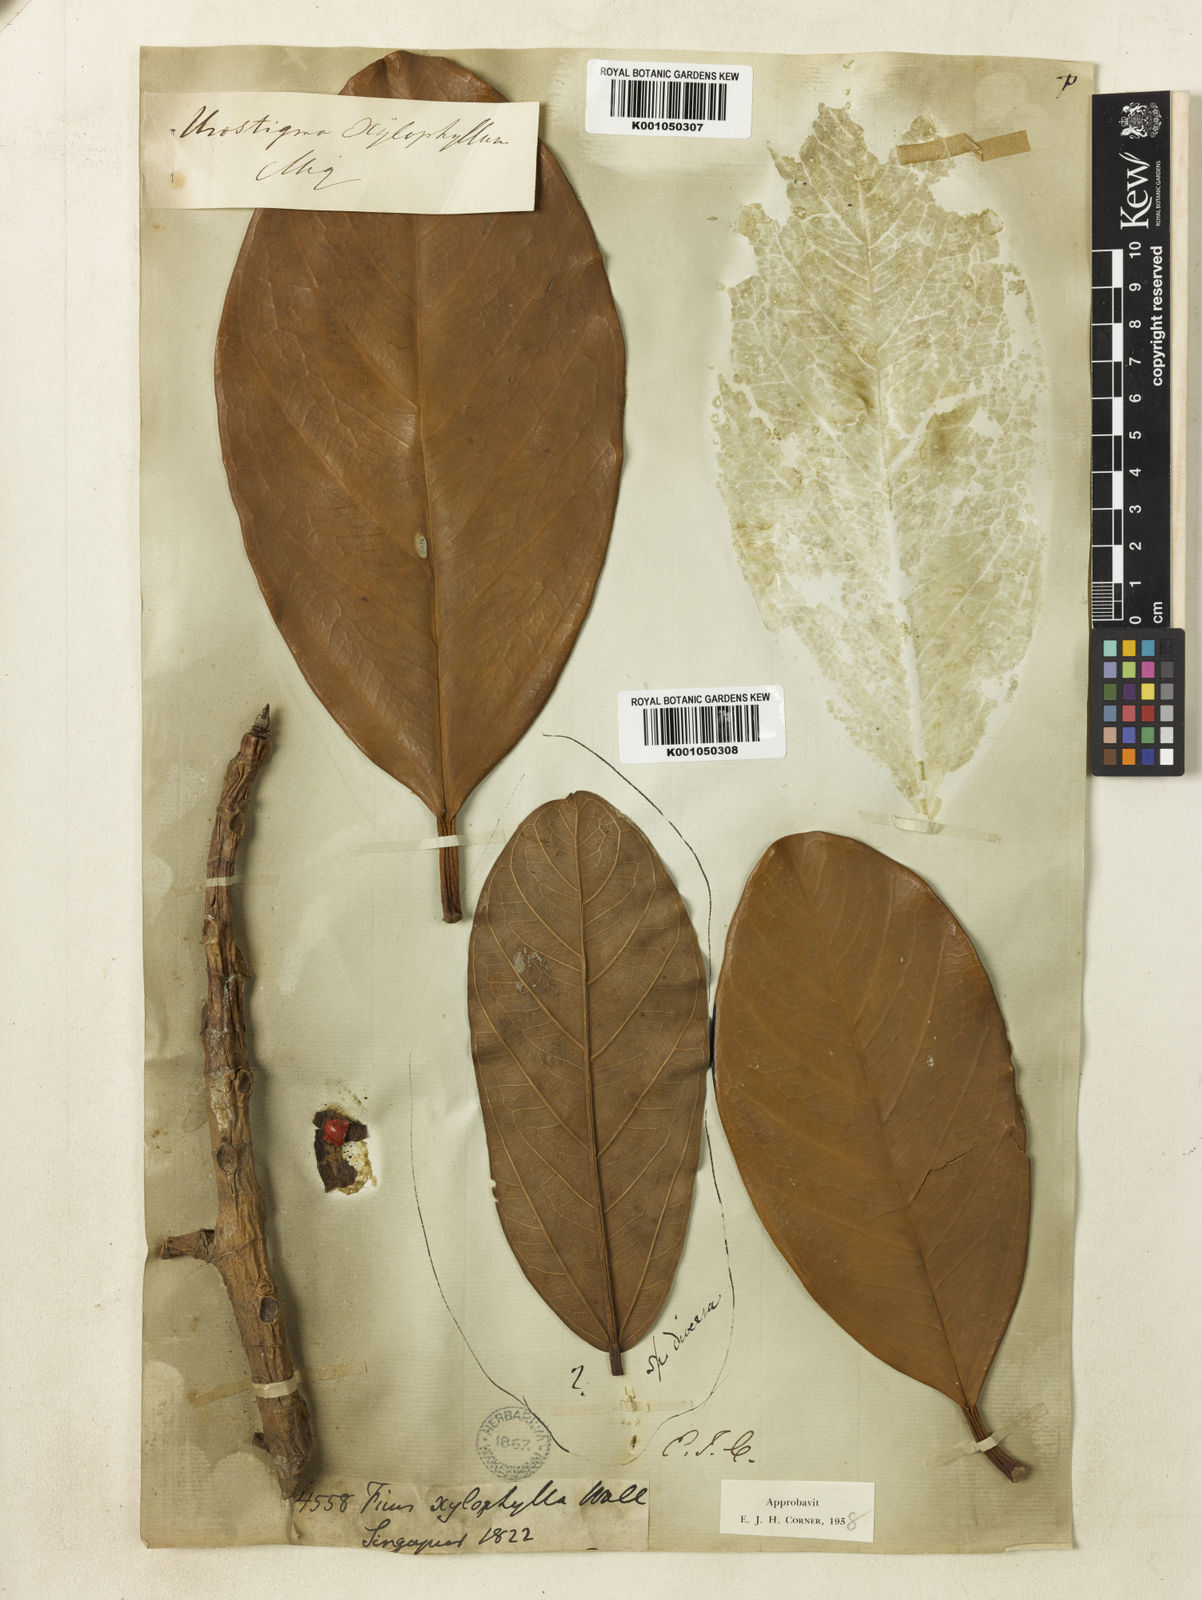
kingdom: Plantae
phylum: Tracheophyta
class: Magnoliopsida
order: Rosales
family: Moraceae
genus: Ficus
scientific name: Ficus xylophylla
